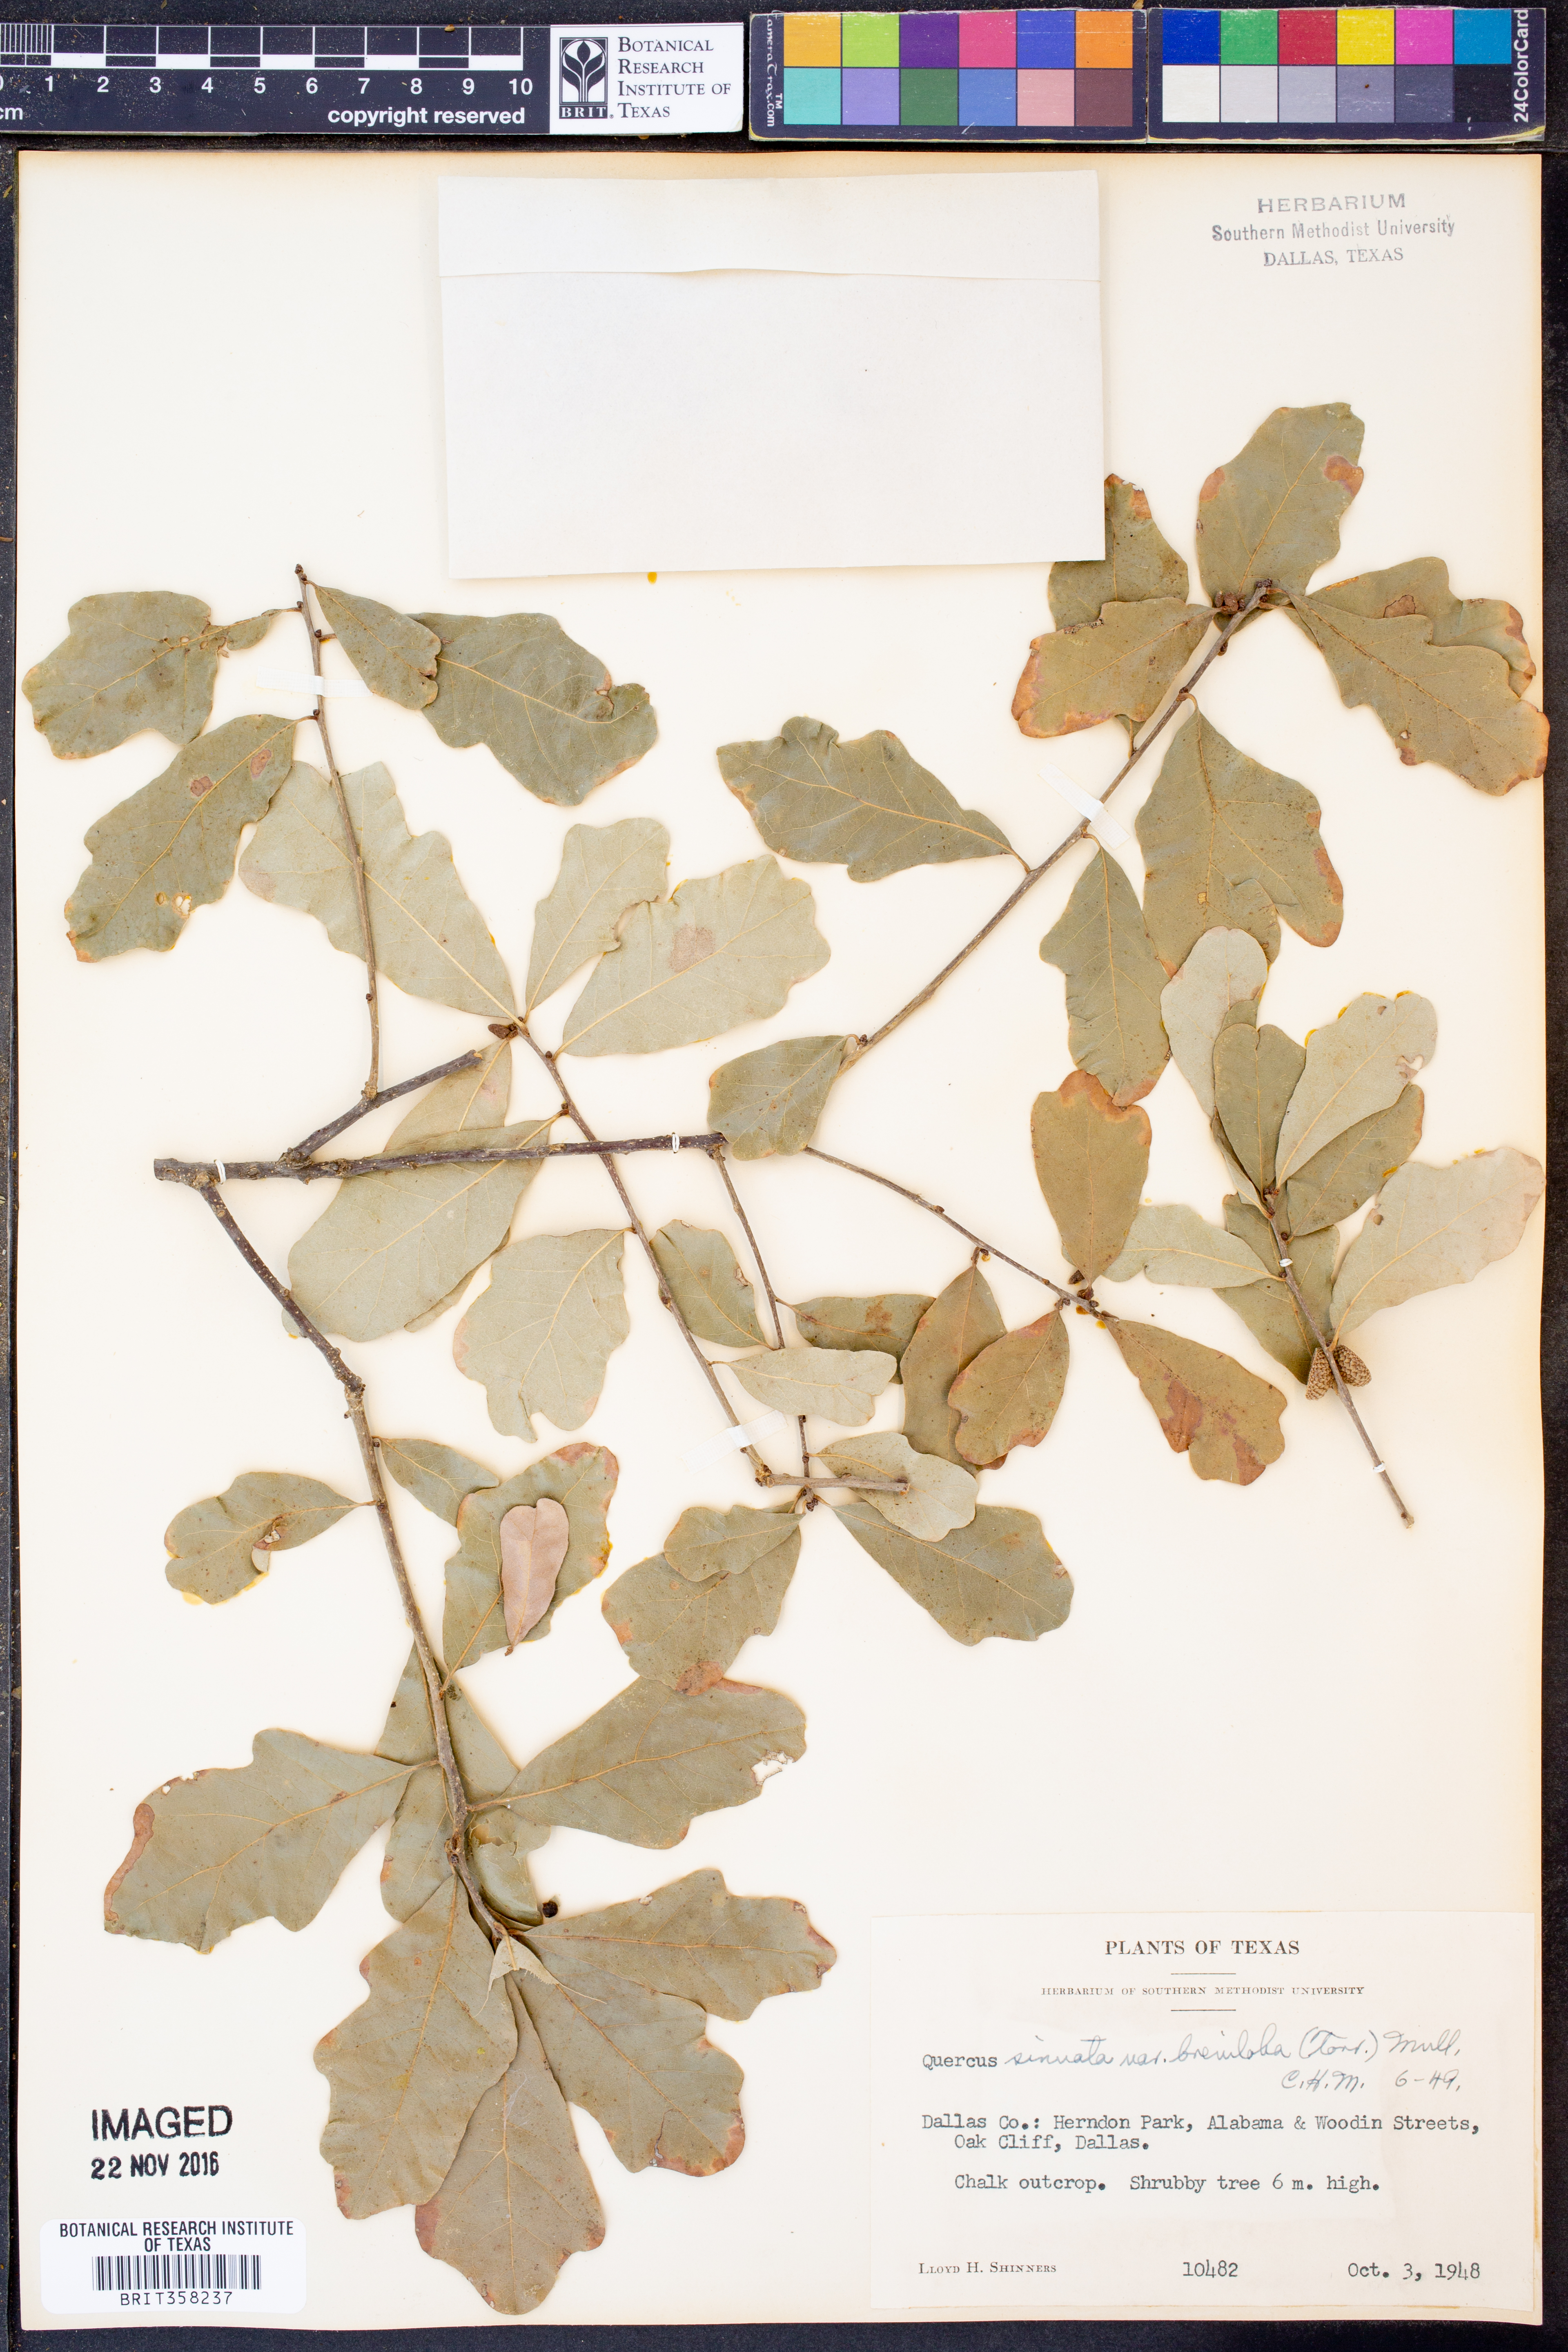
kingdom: Plantae
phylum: Tracheophyta
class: Magnoliopsida
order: Fagales
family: Fagaceae
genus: Quercus
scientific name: Quercus sinuata
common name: Durand oak
